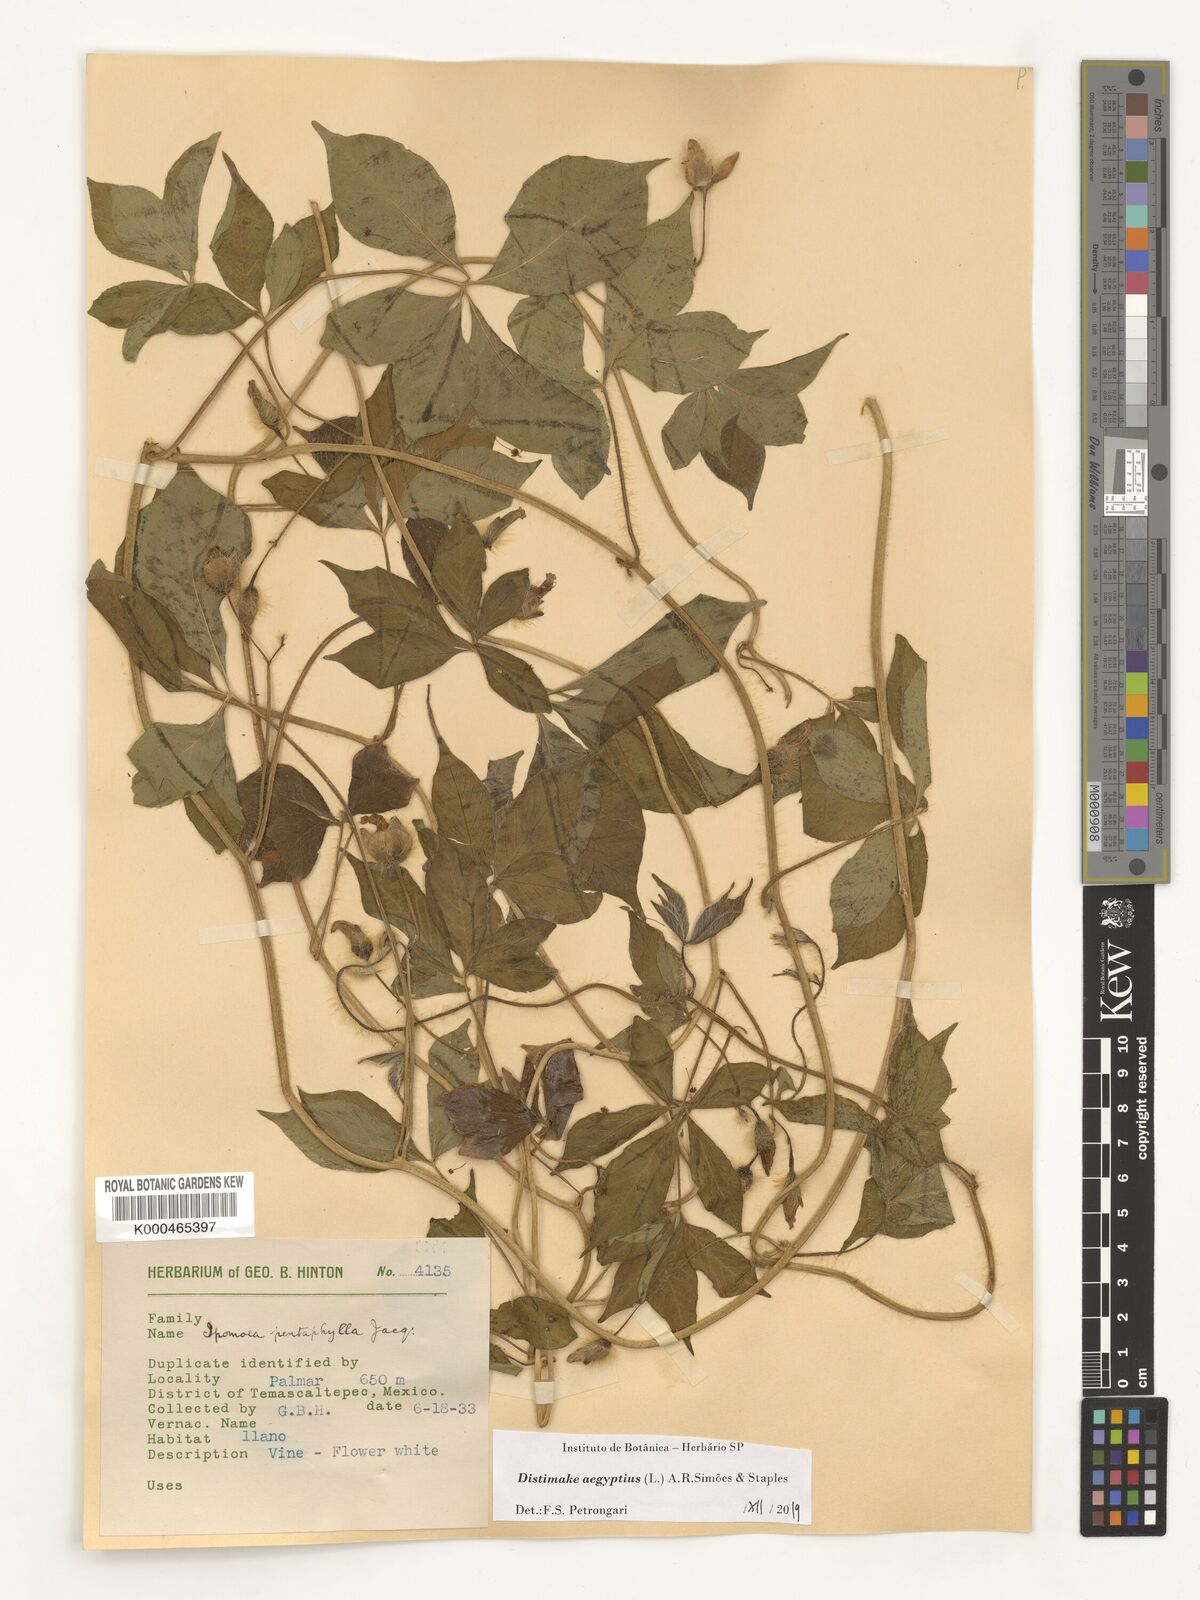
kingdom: Plantae
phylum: Tracheophyta
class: Magnoliopsida
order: Solanales
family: Convolvulaceae
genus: Distimake
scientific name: Distimake aegyptius
